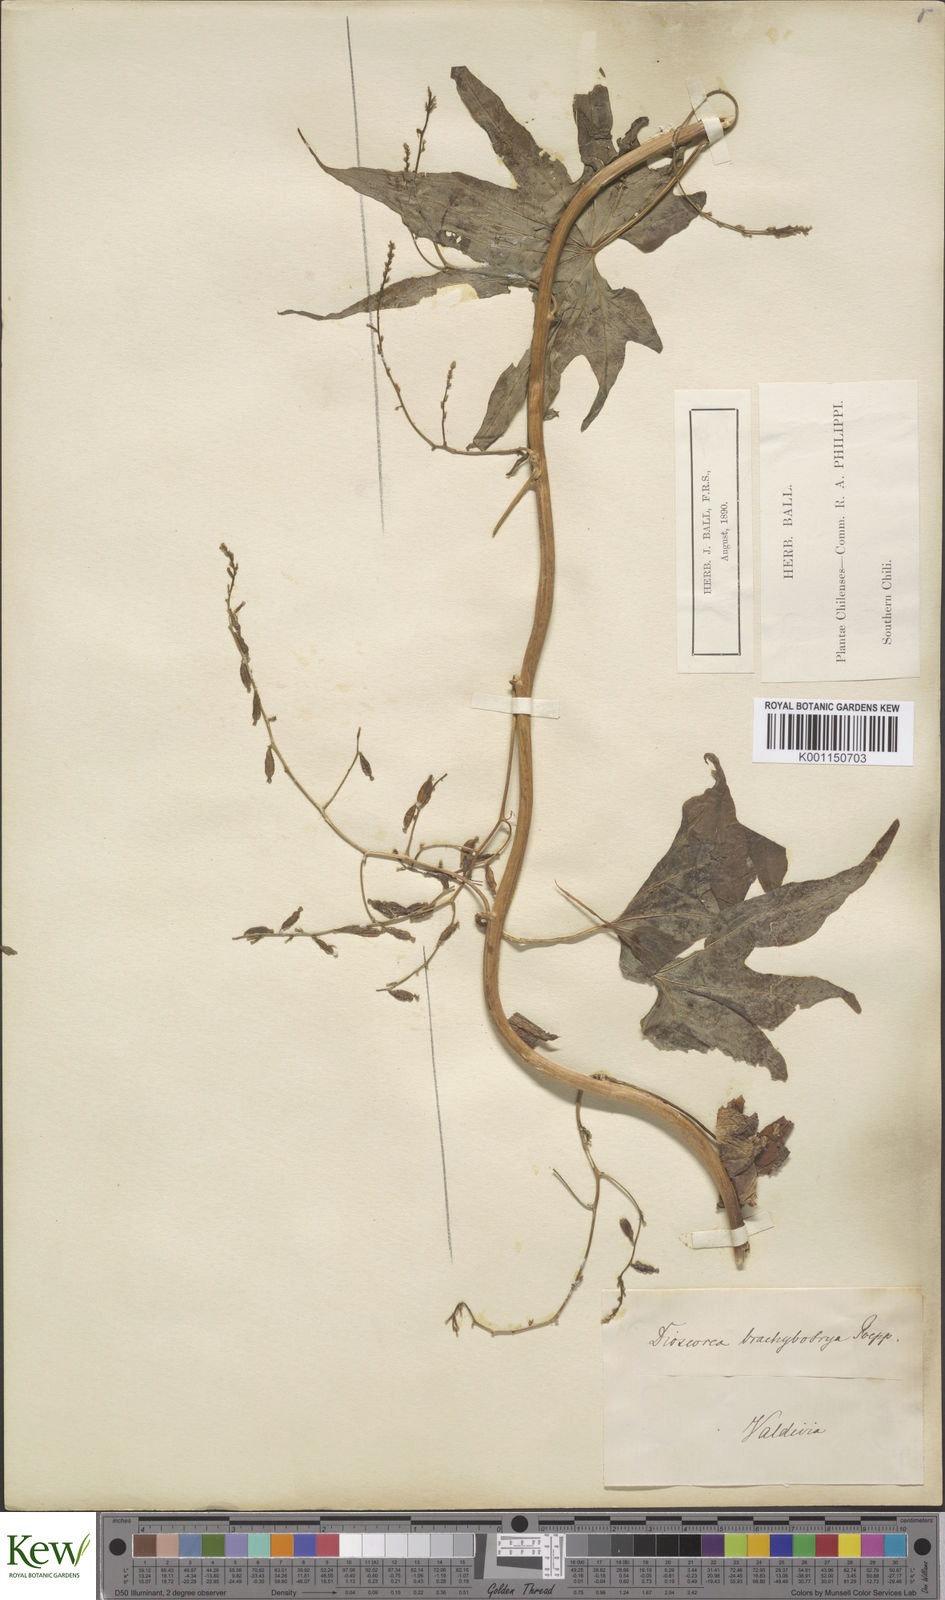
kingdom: Plantae
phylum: Tracheophyta
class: Liliopsida
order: Dioscoreales
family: Dioscoreaceae
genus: Dioscorea
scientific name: Dioscorea brachybotrya
